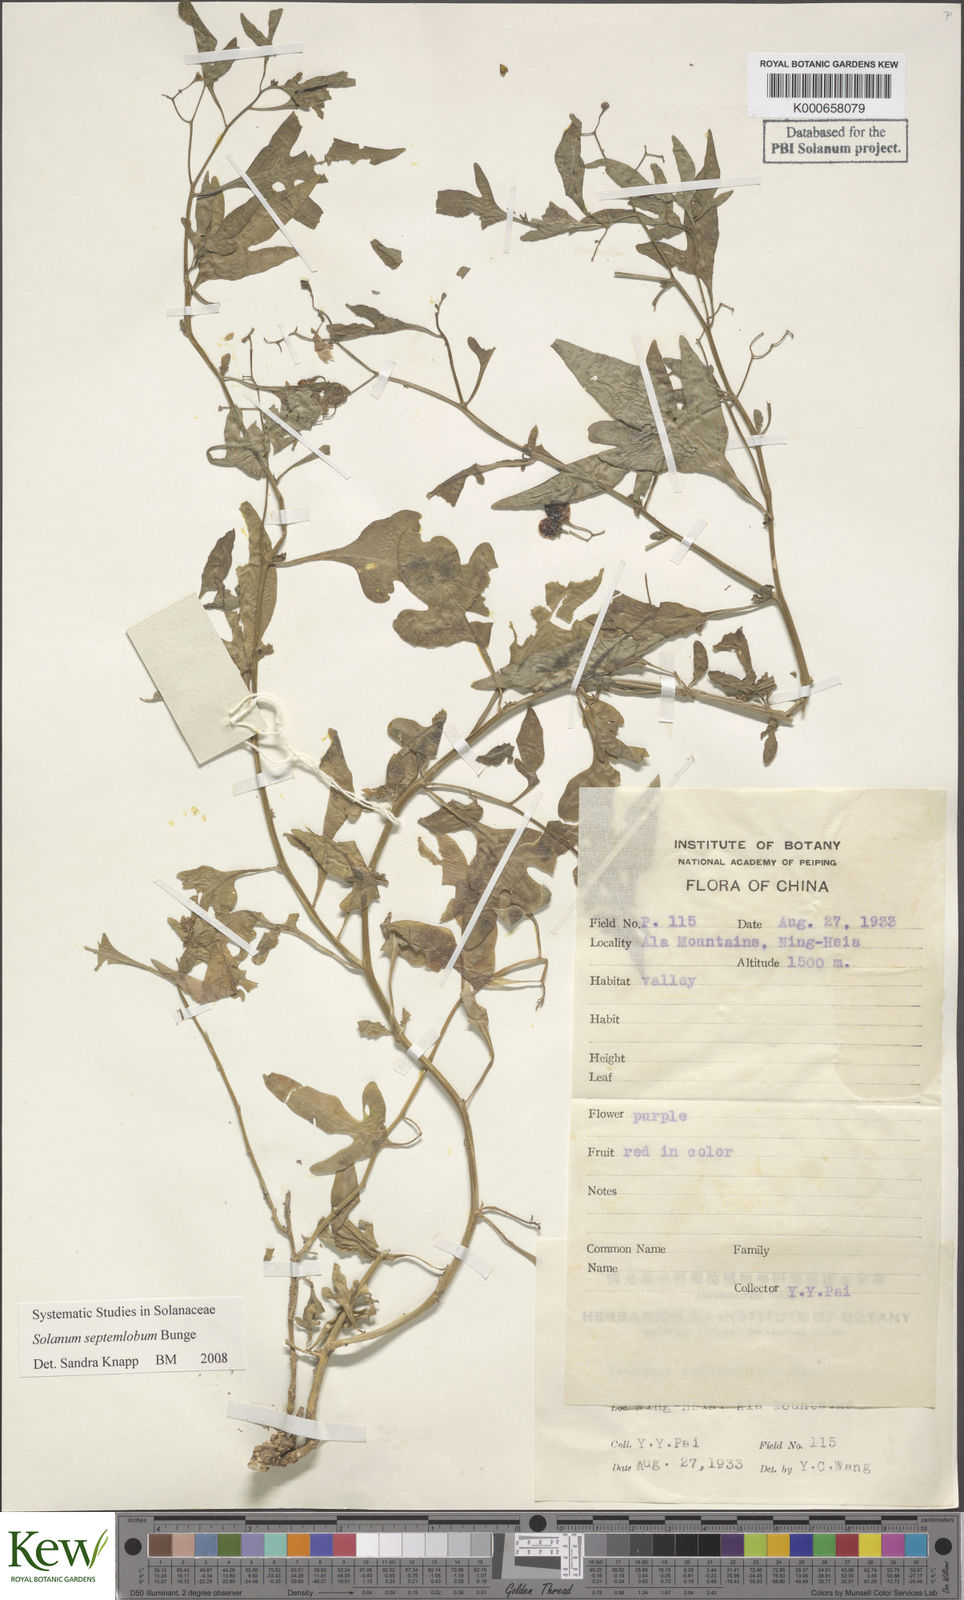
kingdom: Plantae
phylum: Tracheophyta
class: Magnoliopsida
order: Solanales
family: Solanaceae
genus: Solanum
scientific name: Solanum septemlobum
